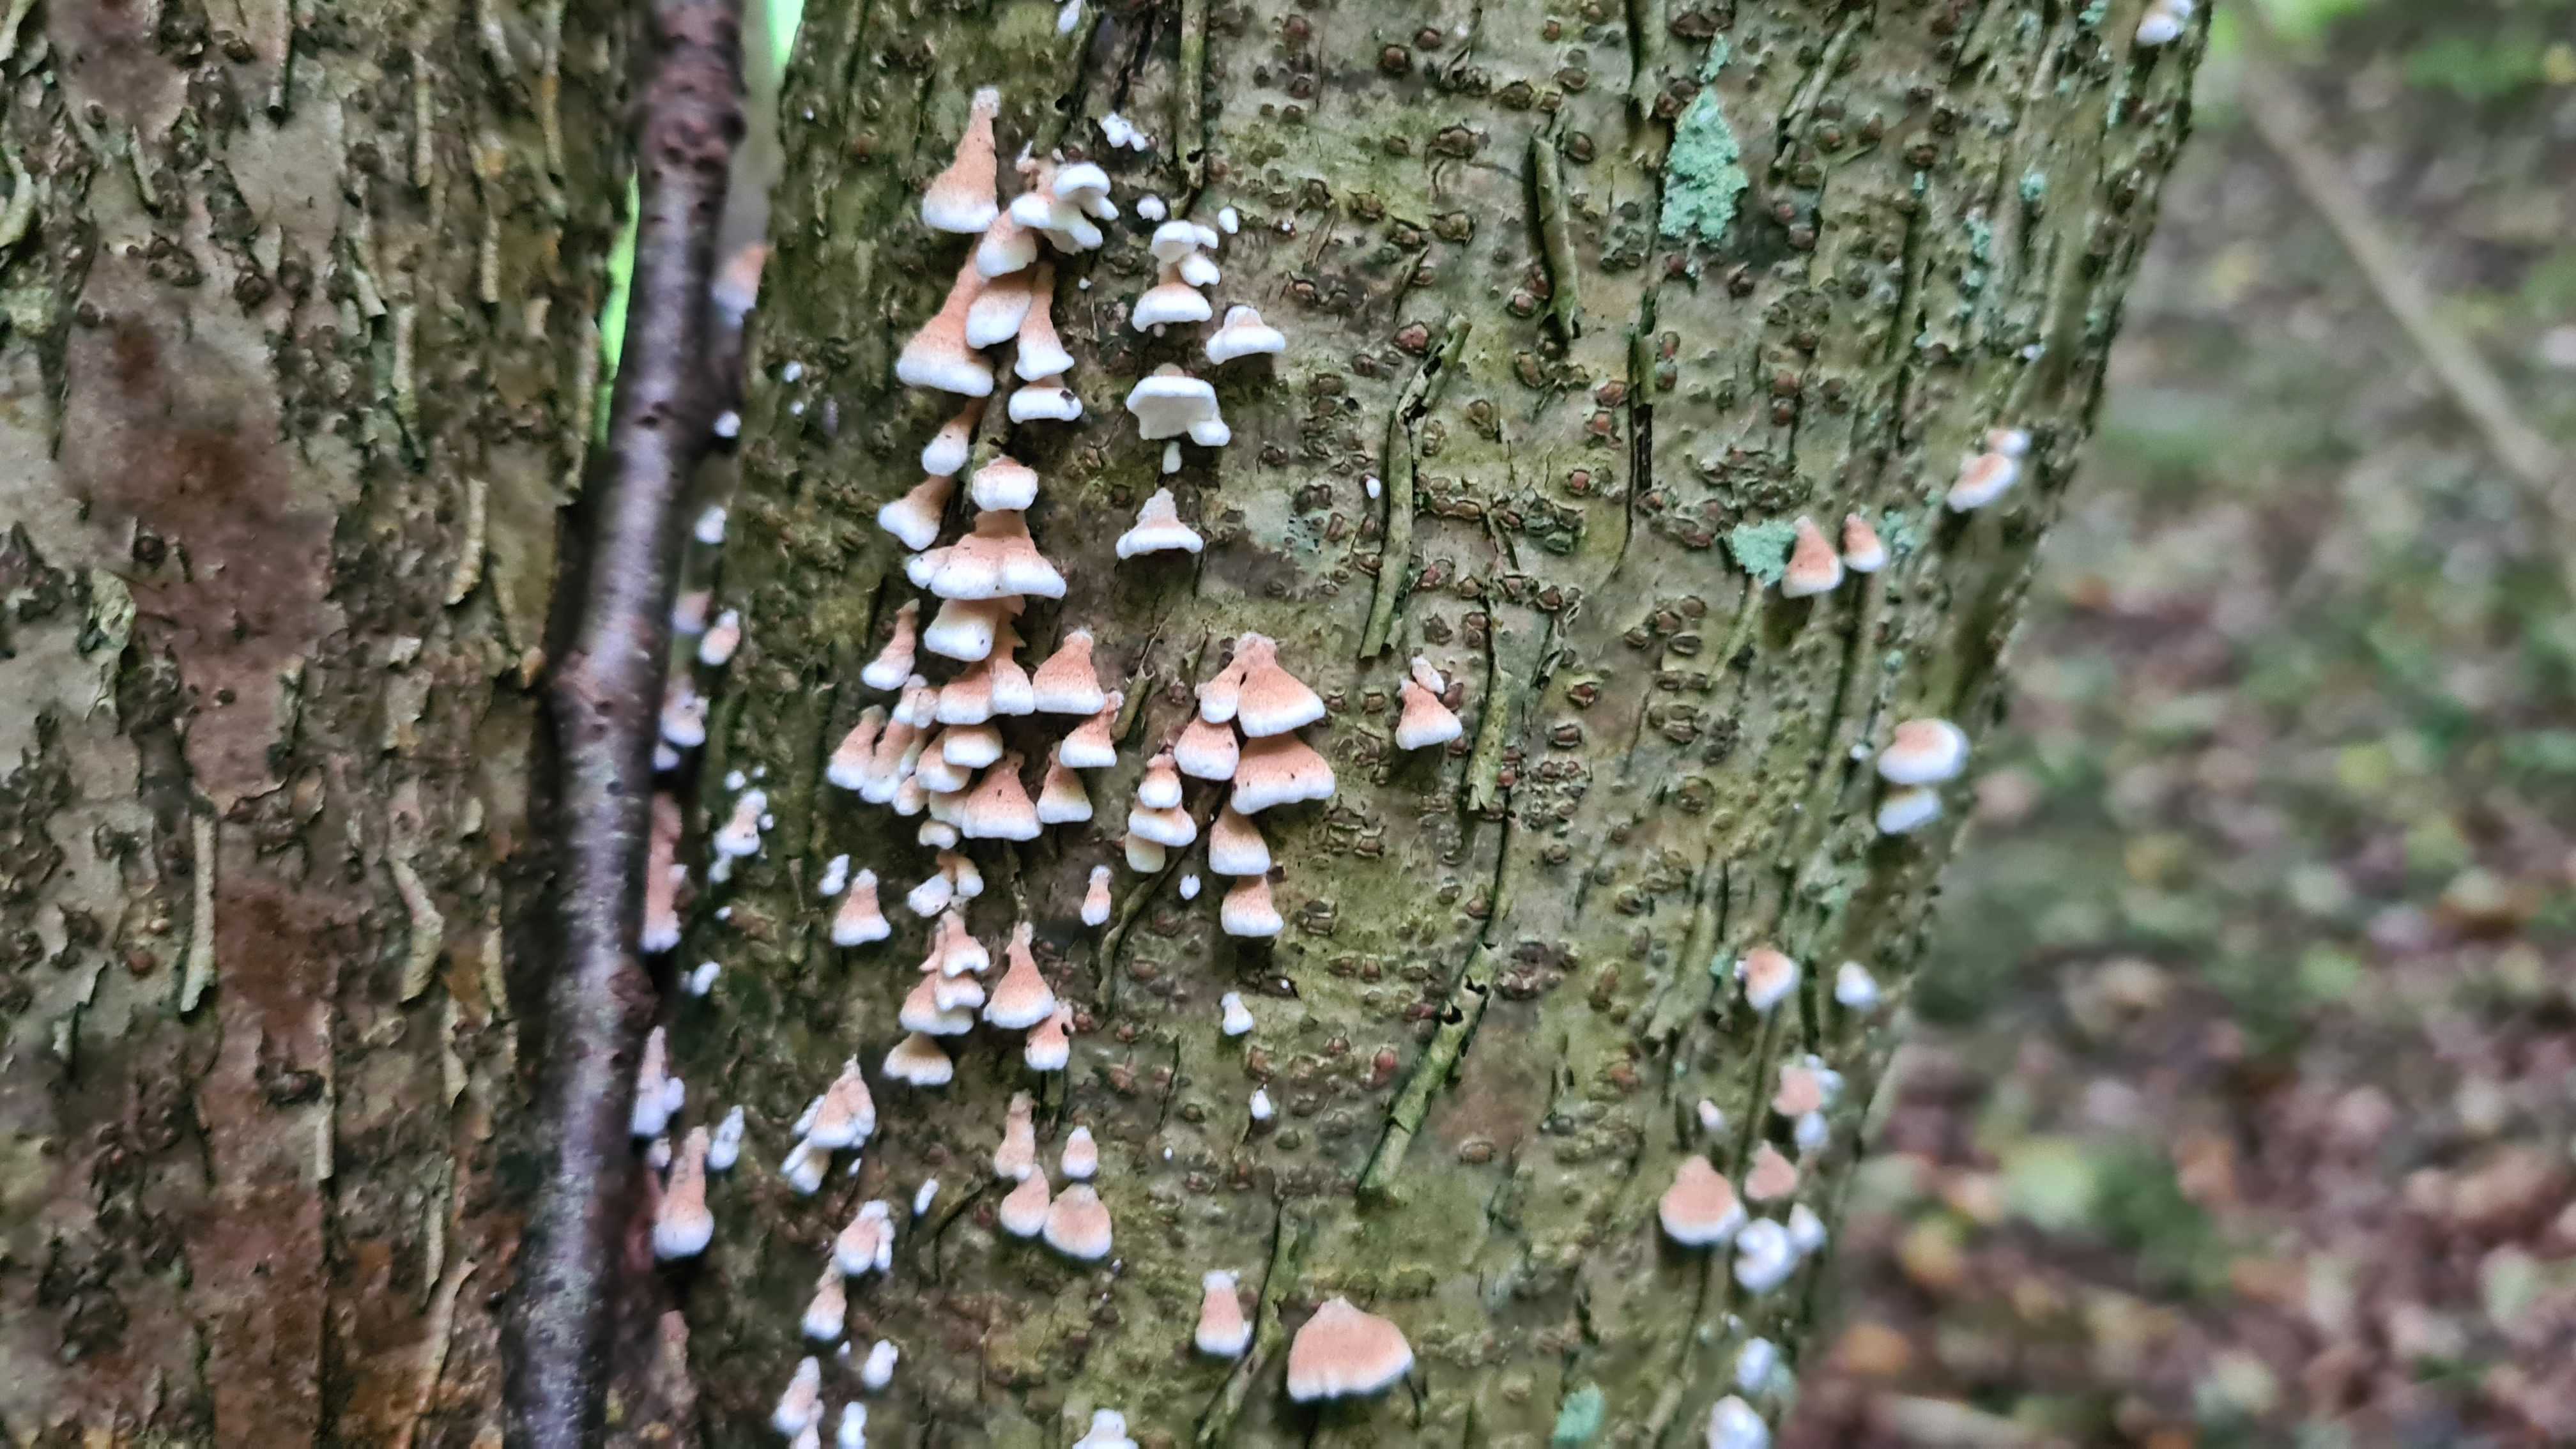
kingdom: Fungi
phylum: Basidiomycota
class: Agaricomycetes
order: Amylocorticiales
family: Amylocorticiaceae
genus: Plicaturopsis
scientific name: Plicaturopsis crispa
